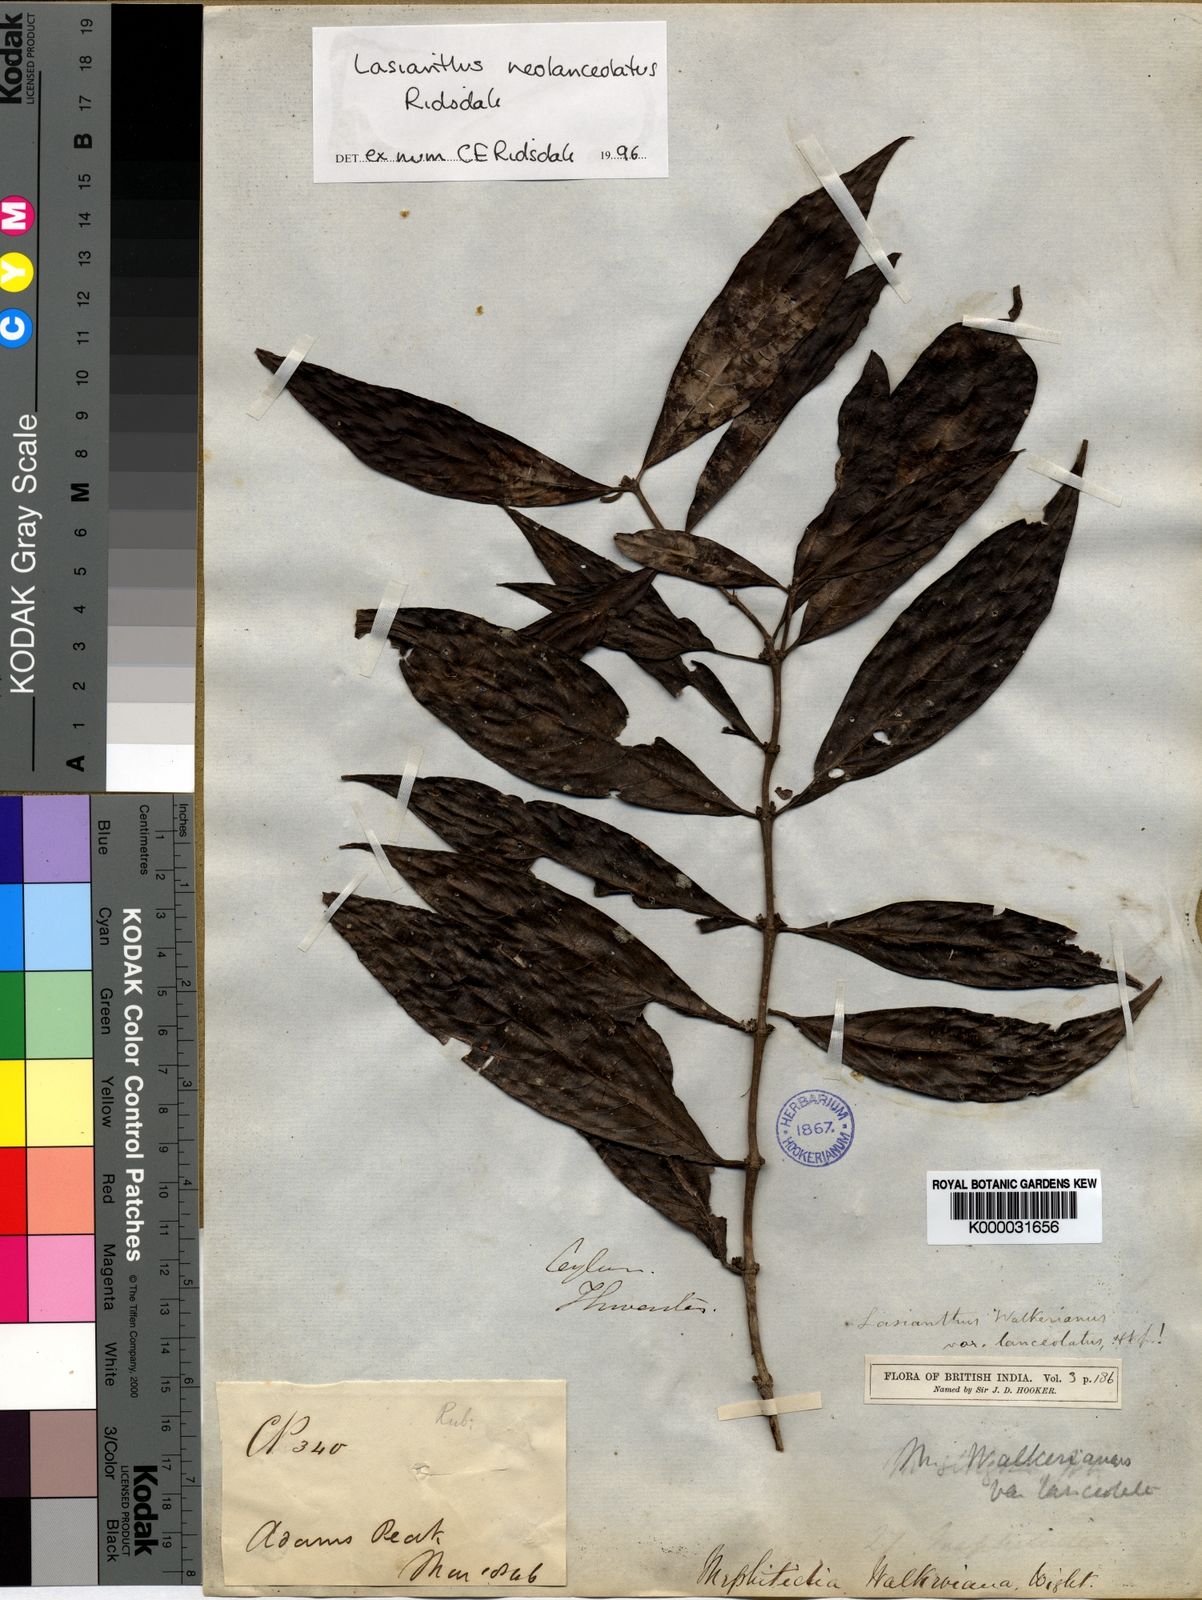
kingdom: Plantae
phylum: Tracheophyta
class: Magnoliopsida
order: Gentianales
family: Rubiaceae
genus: Lasianthus
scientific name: Lasianthus neolanceolatus
